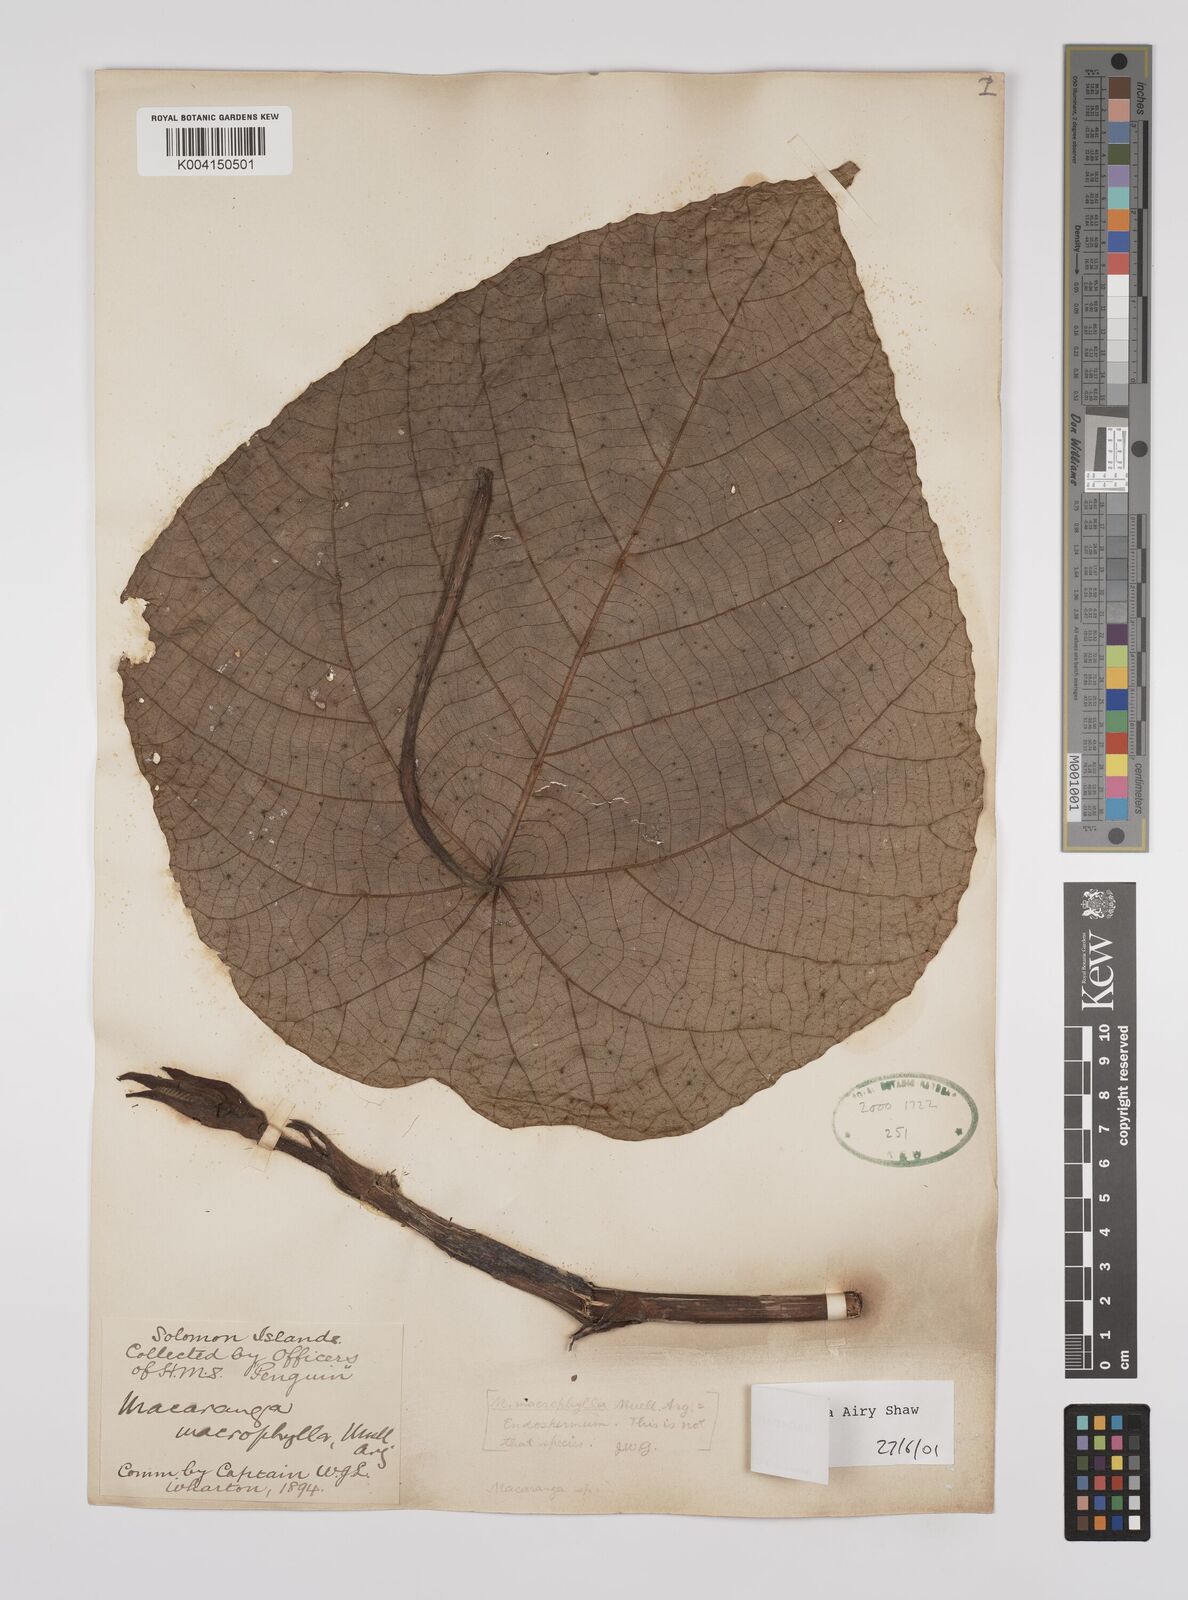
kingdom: Plantae
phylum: Tracheophyta
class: Magnoliopsida
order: Malpighiales
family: Euphorbiaceae
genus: Macaranga
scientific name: Macaranga
